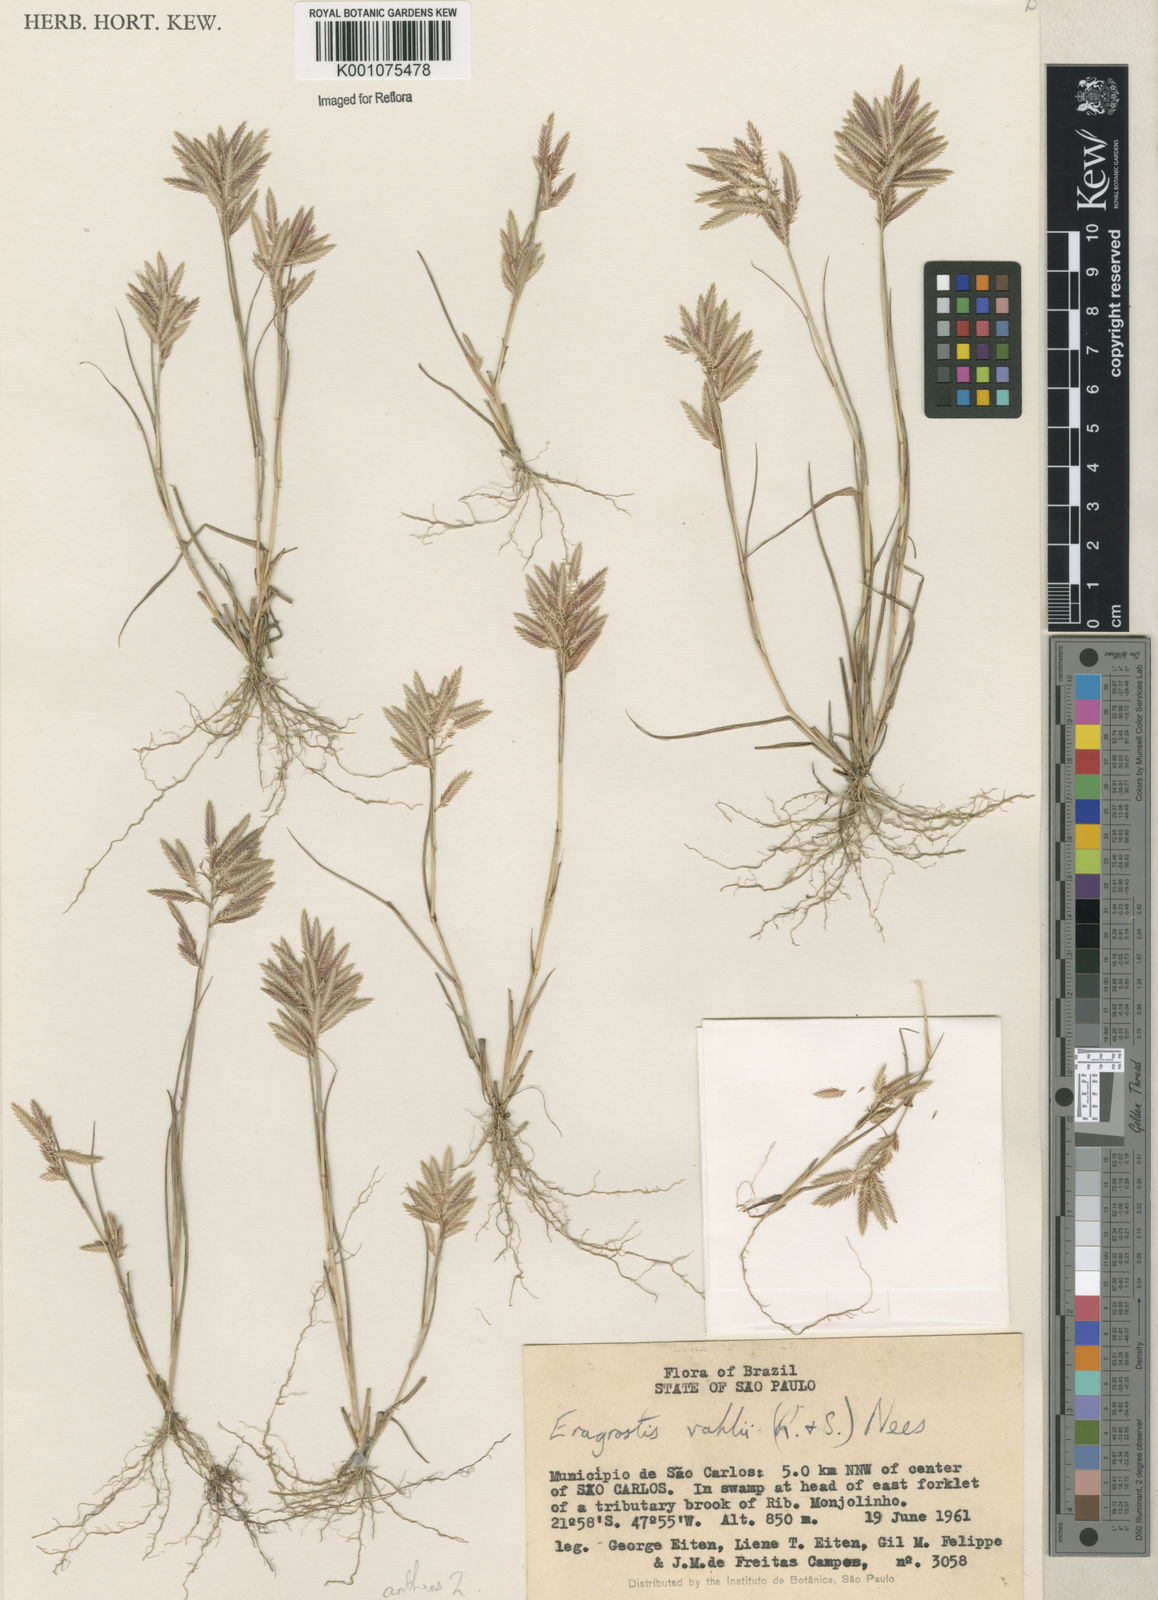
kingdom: Plantae
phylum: Tracheophyta
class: Liliopsida
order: Poales
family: Poaceae
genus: Eragrostis
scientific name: Eragrostis maypurensis
